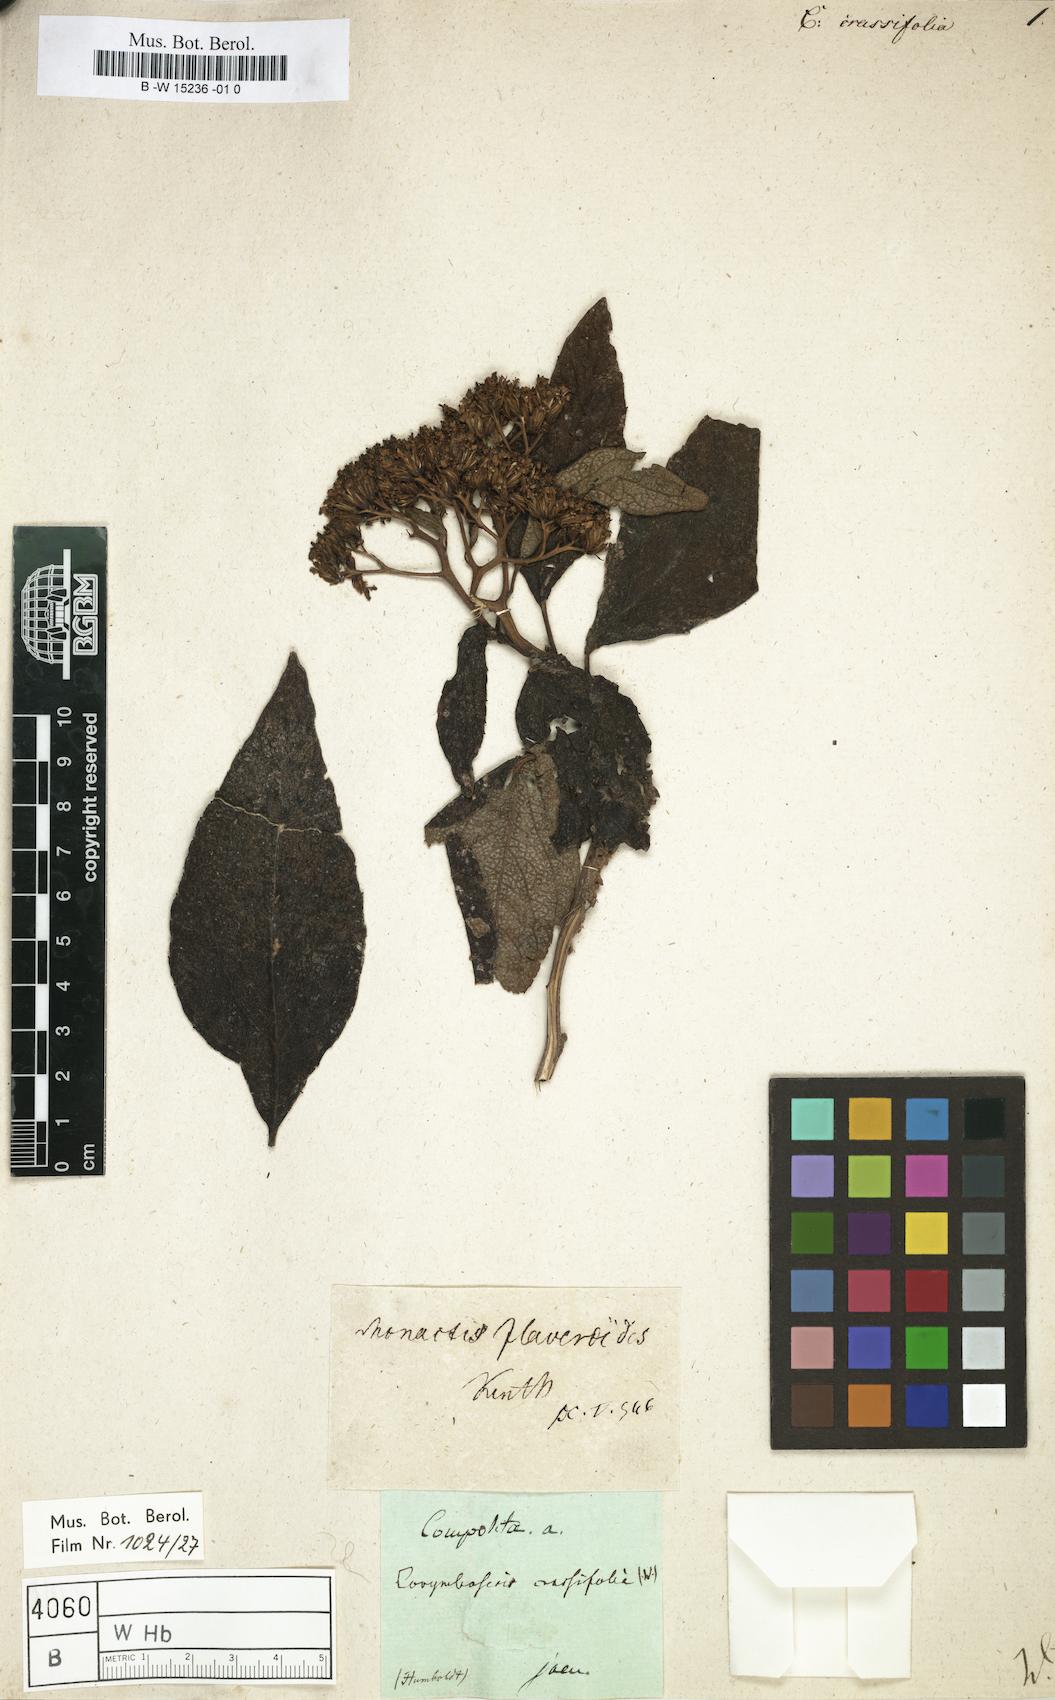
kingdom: Plantae
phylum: Tracheophyta
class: Magnoliopsida
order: Asterales
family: Asteraceae
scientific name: Asteraceae
